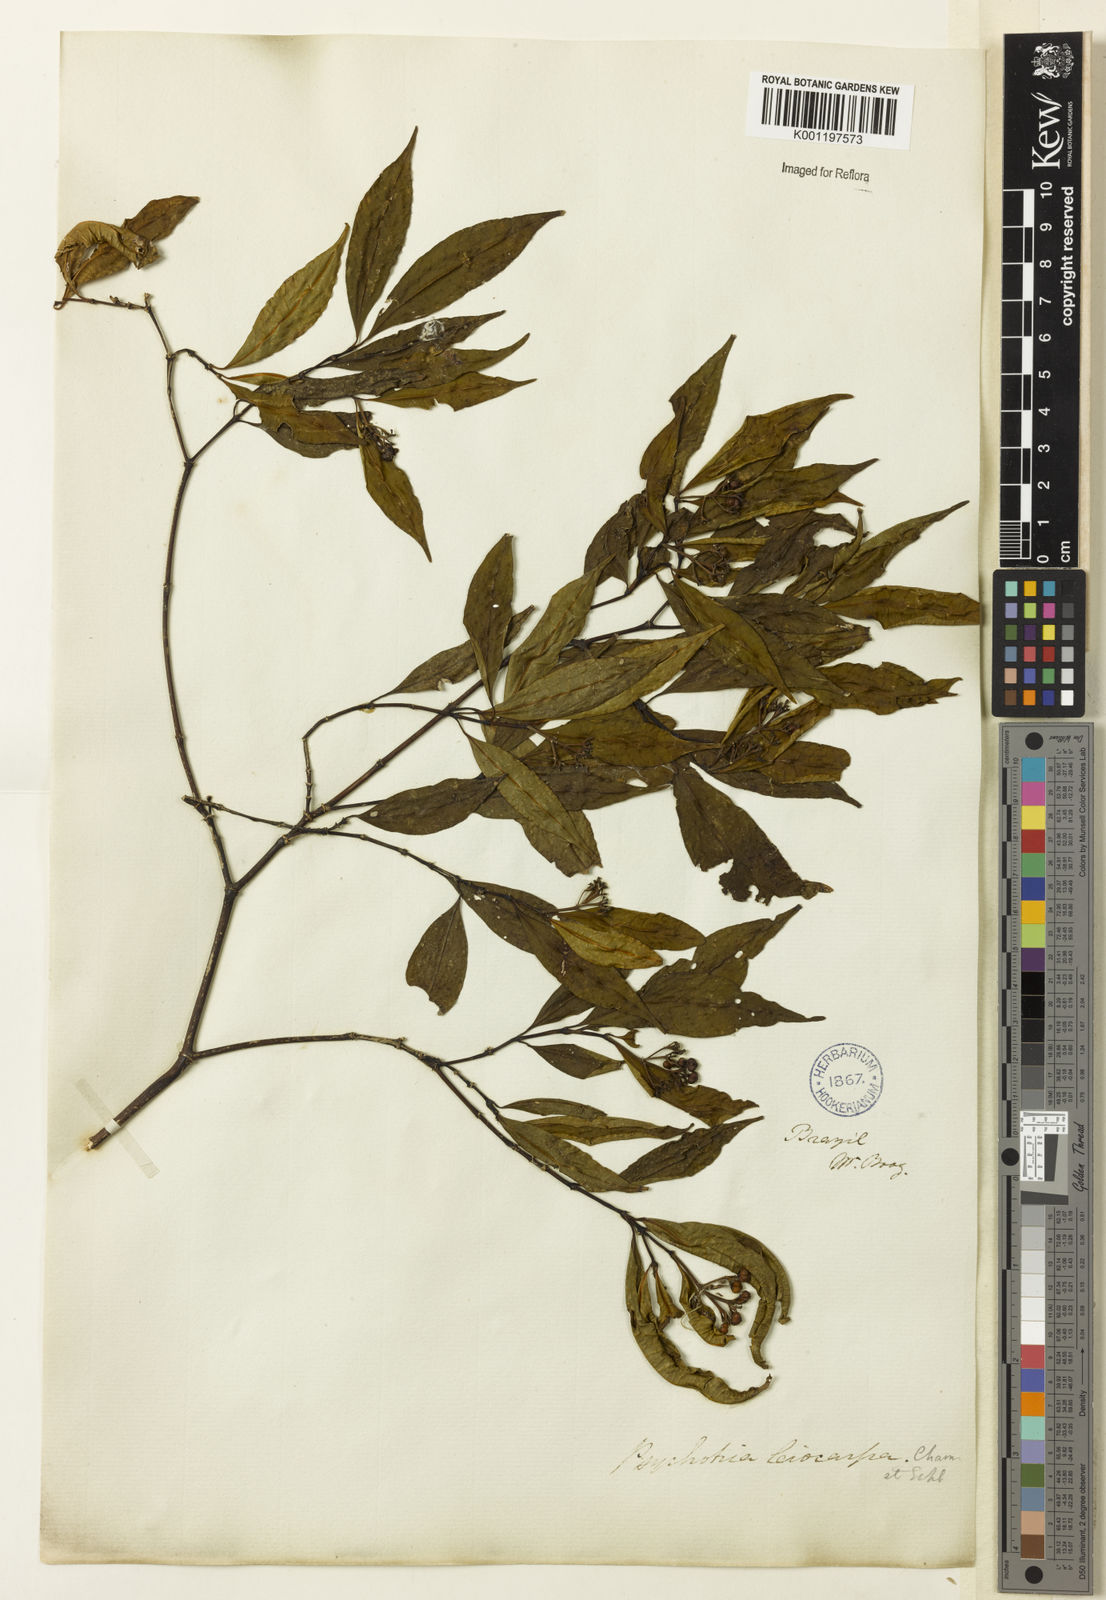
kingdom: Plantae
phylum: Tracheophyta
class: Magnoliopsida
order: Gentianales
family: Rubiaceae
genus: Psychotria
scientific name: Psychotria leiocarpa
